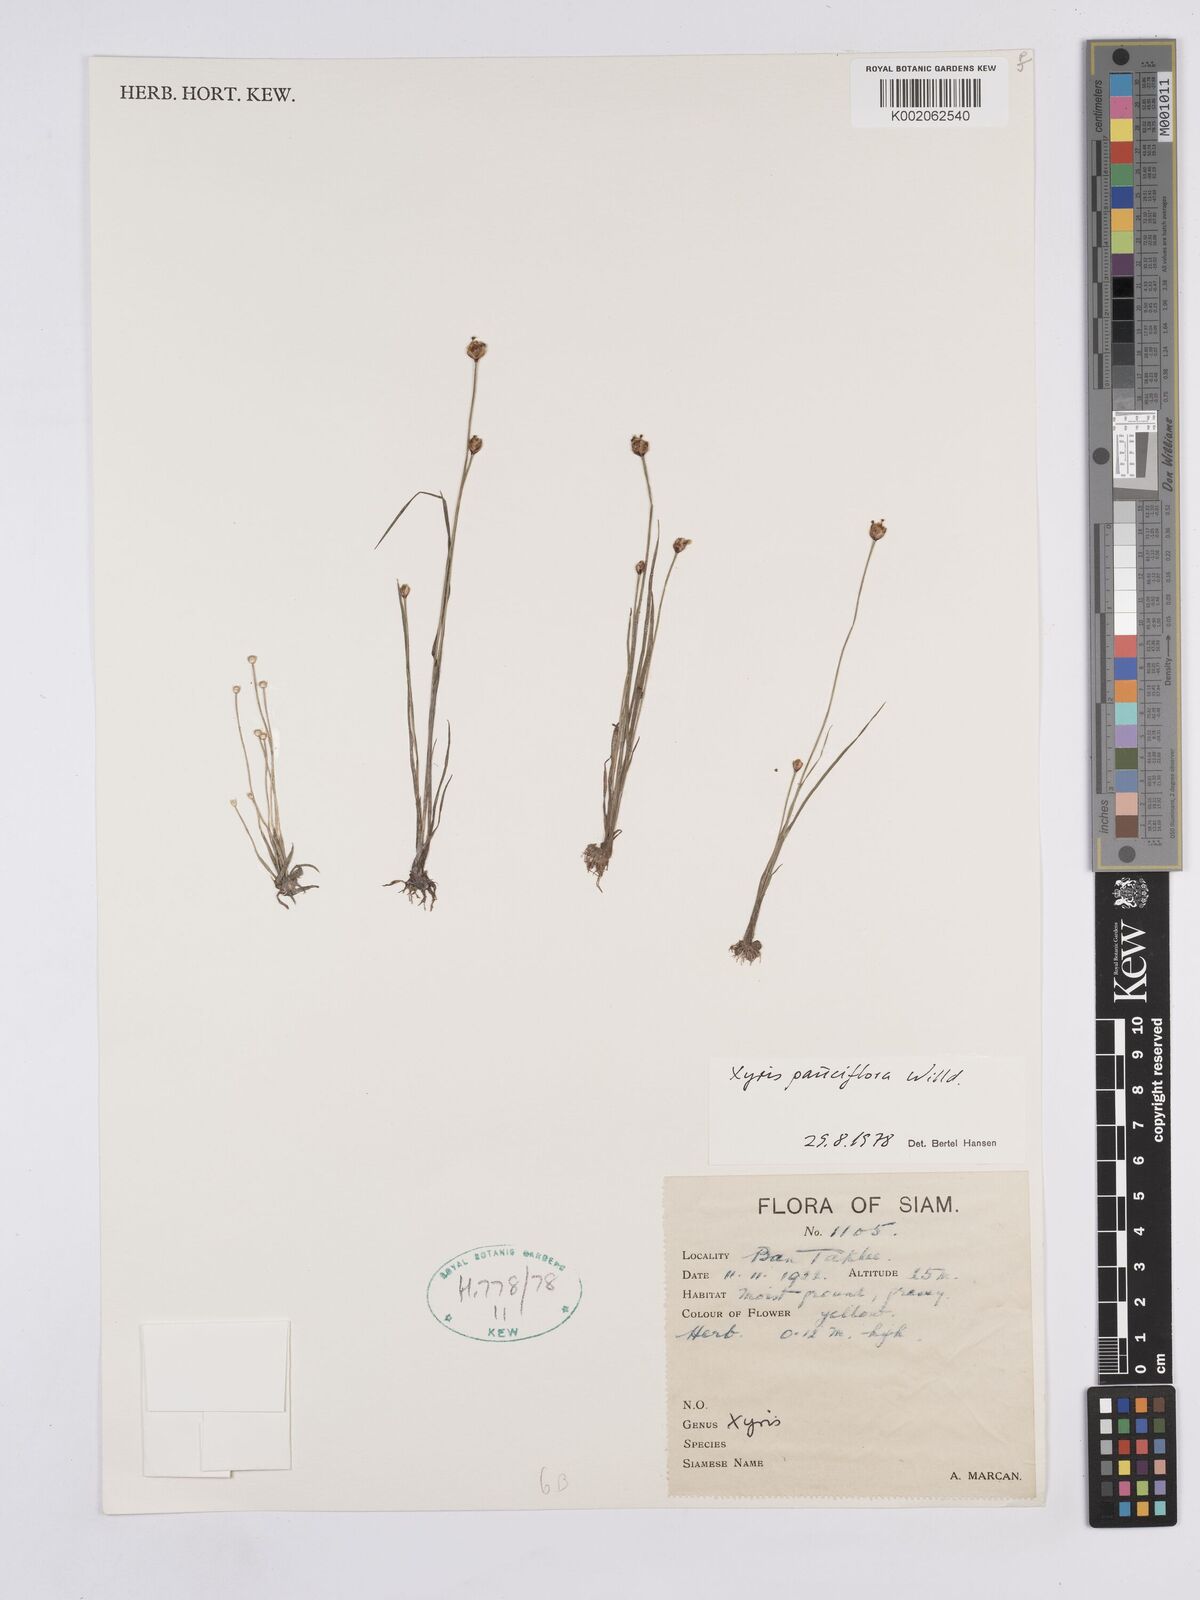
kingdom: Plantae
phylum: Tracheophyta
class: Liliopsida
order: Poales
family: Xyridaceae
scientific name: Xyridaceae
